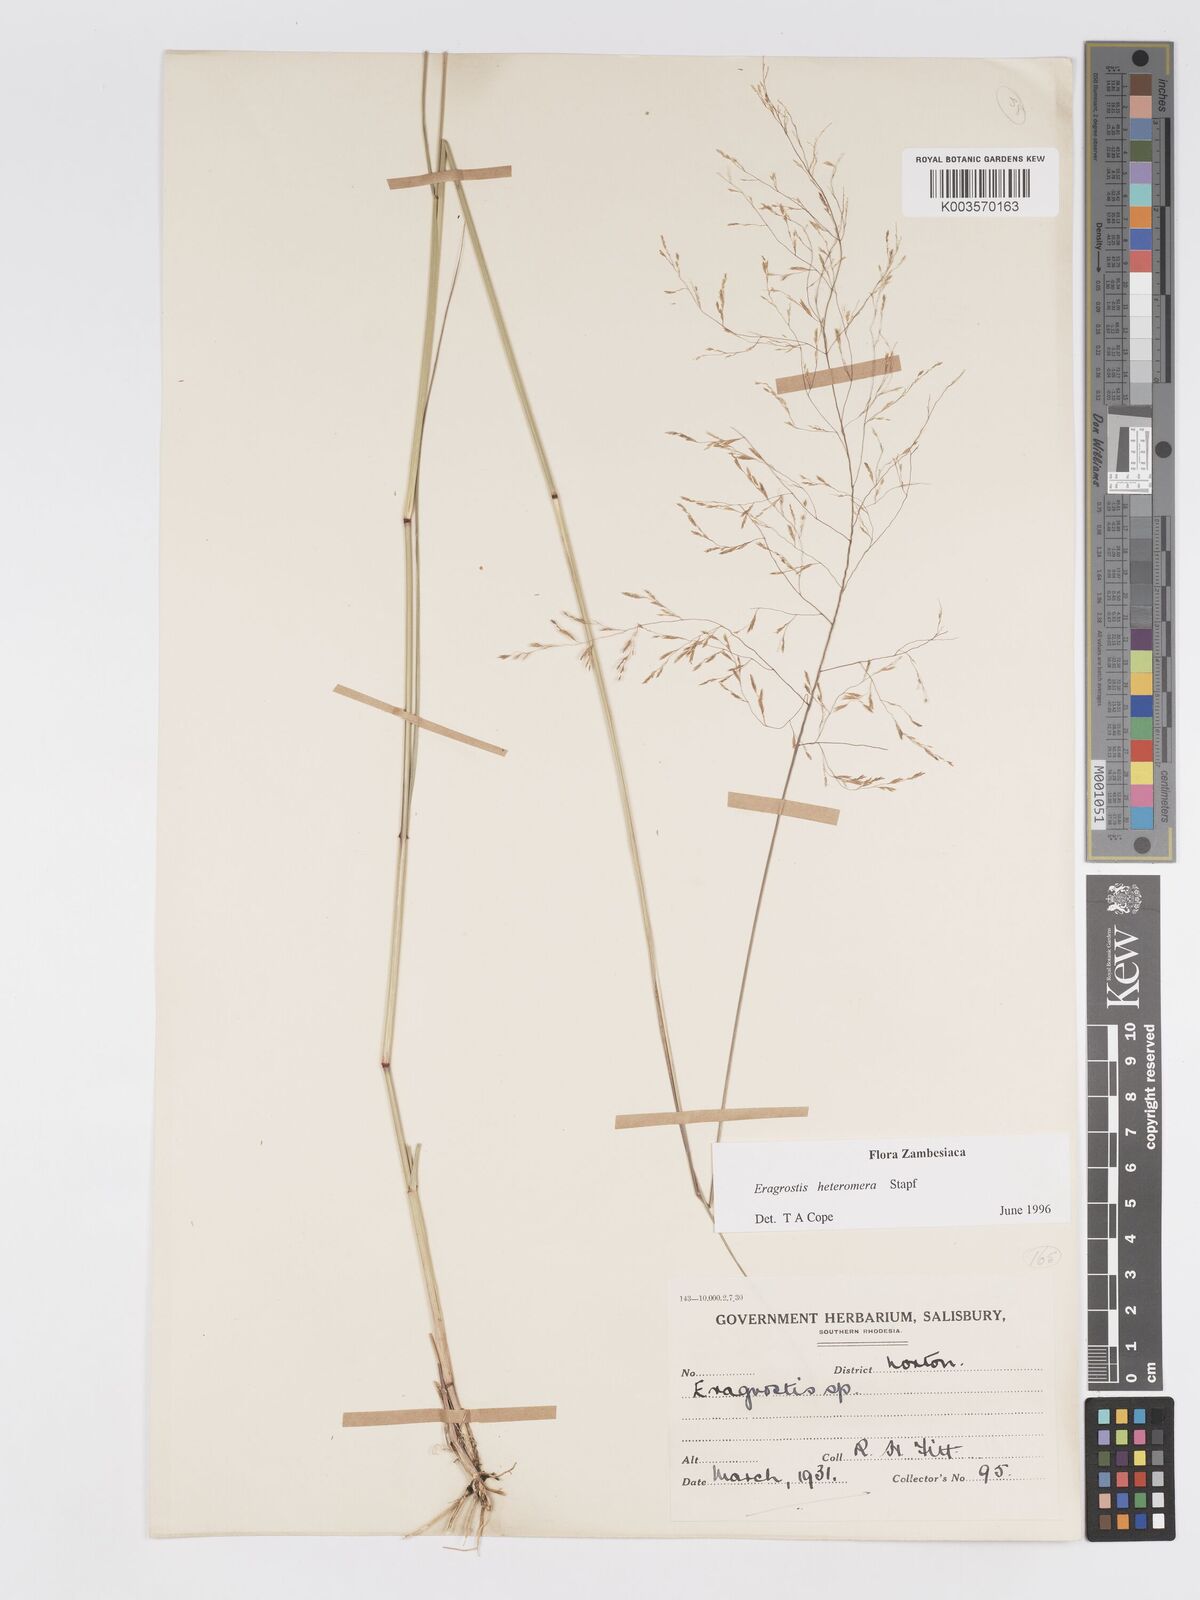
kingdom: Plantae
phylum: Tracheophyta
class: Liliopsida
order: Poales
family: Poaceae
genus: Eragrostis
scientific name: Eragrostis heteromera
